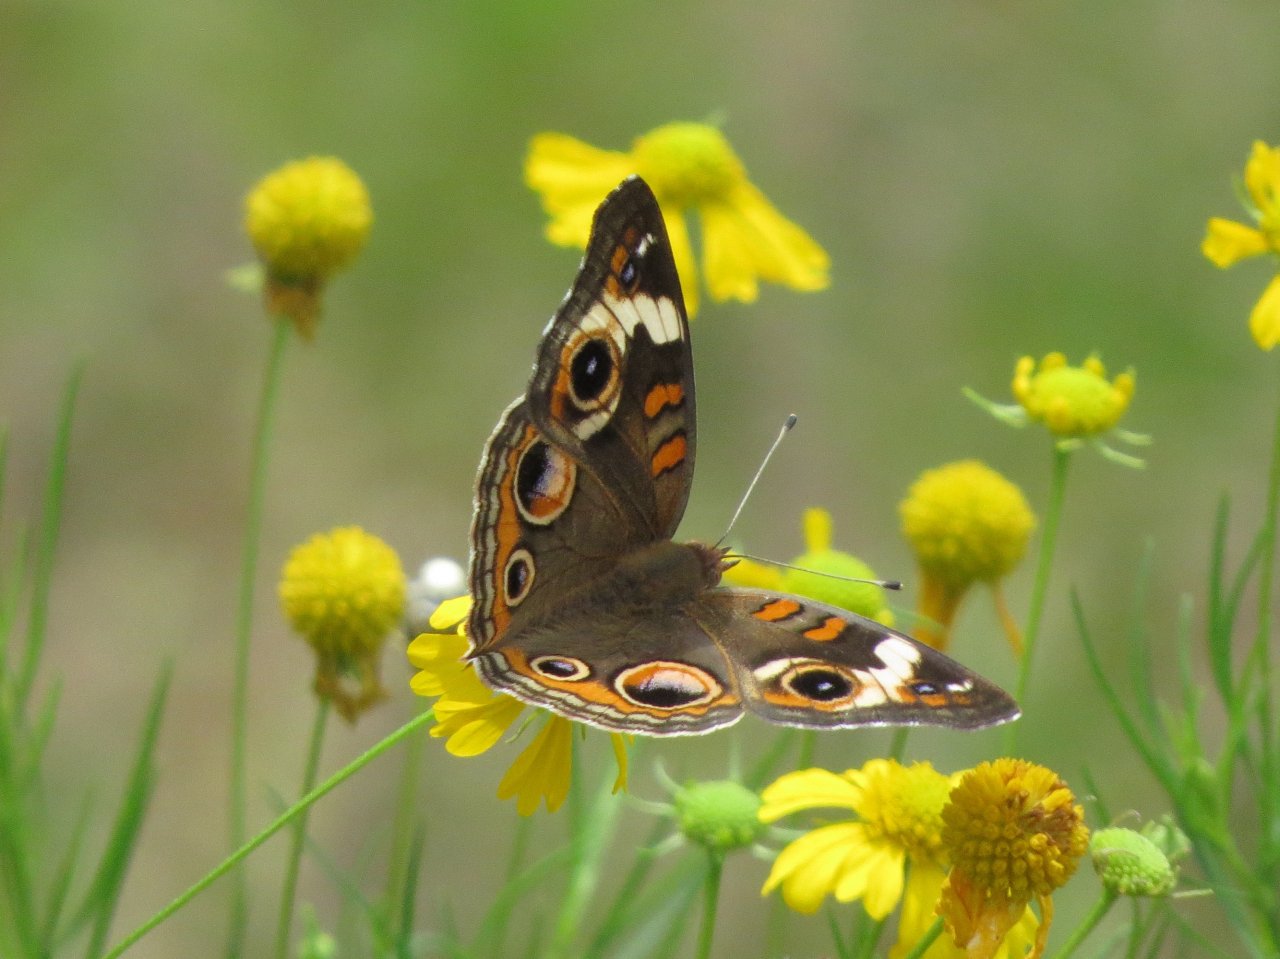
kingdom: Animalia
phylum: Arthropoda
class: Insecta
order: Lepidoptera
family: Nymphalidae
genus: Junonia
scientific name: Junonia coenia
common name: Common Buckeye
